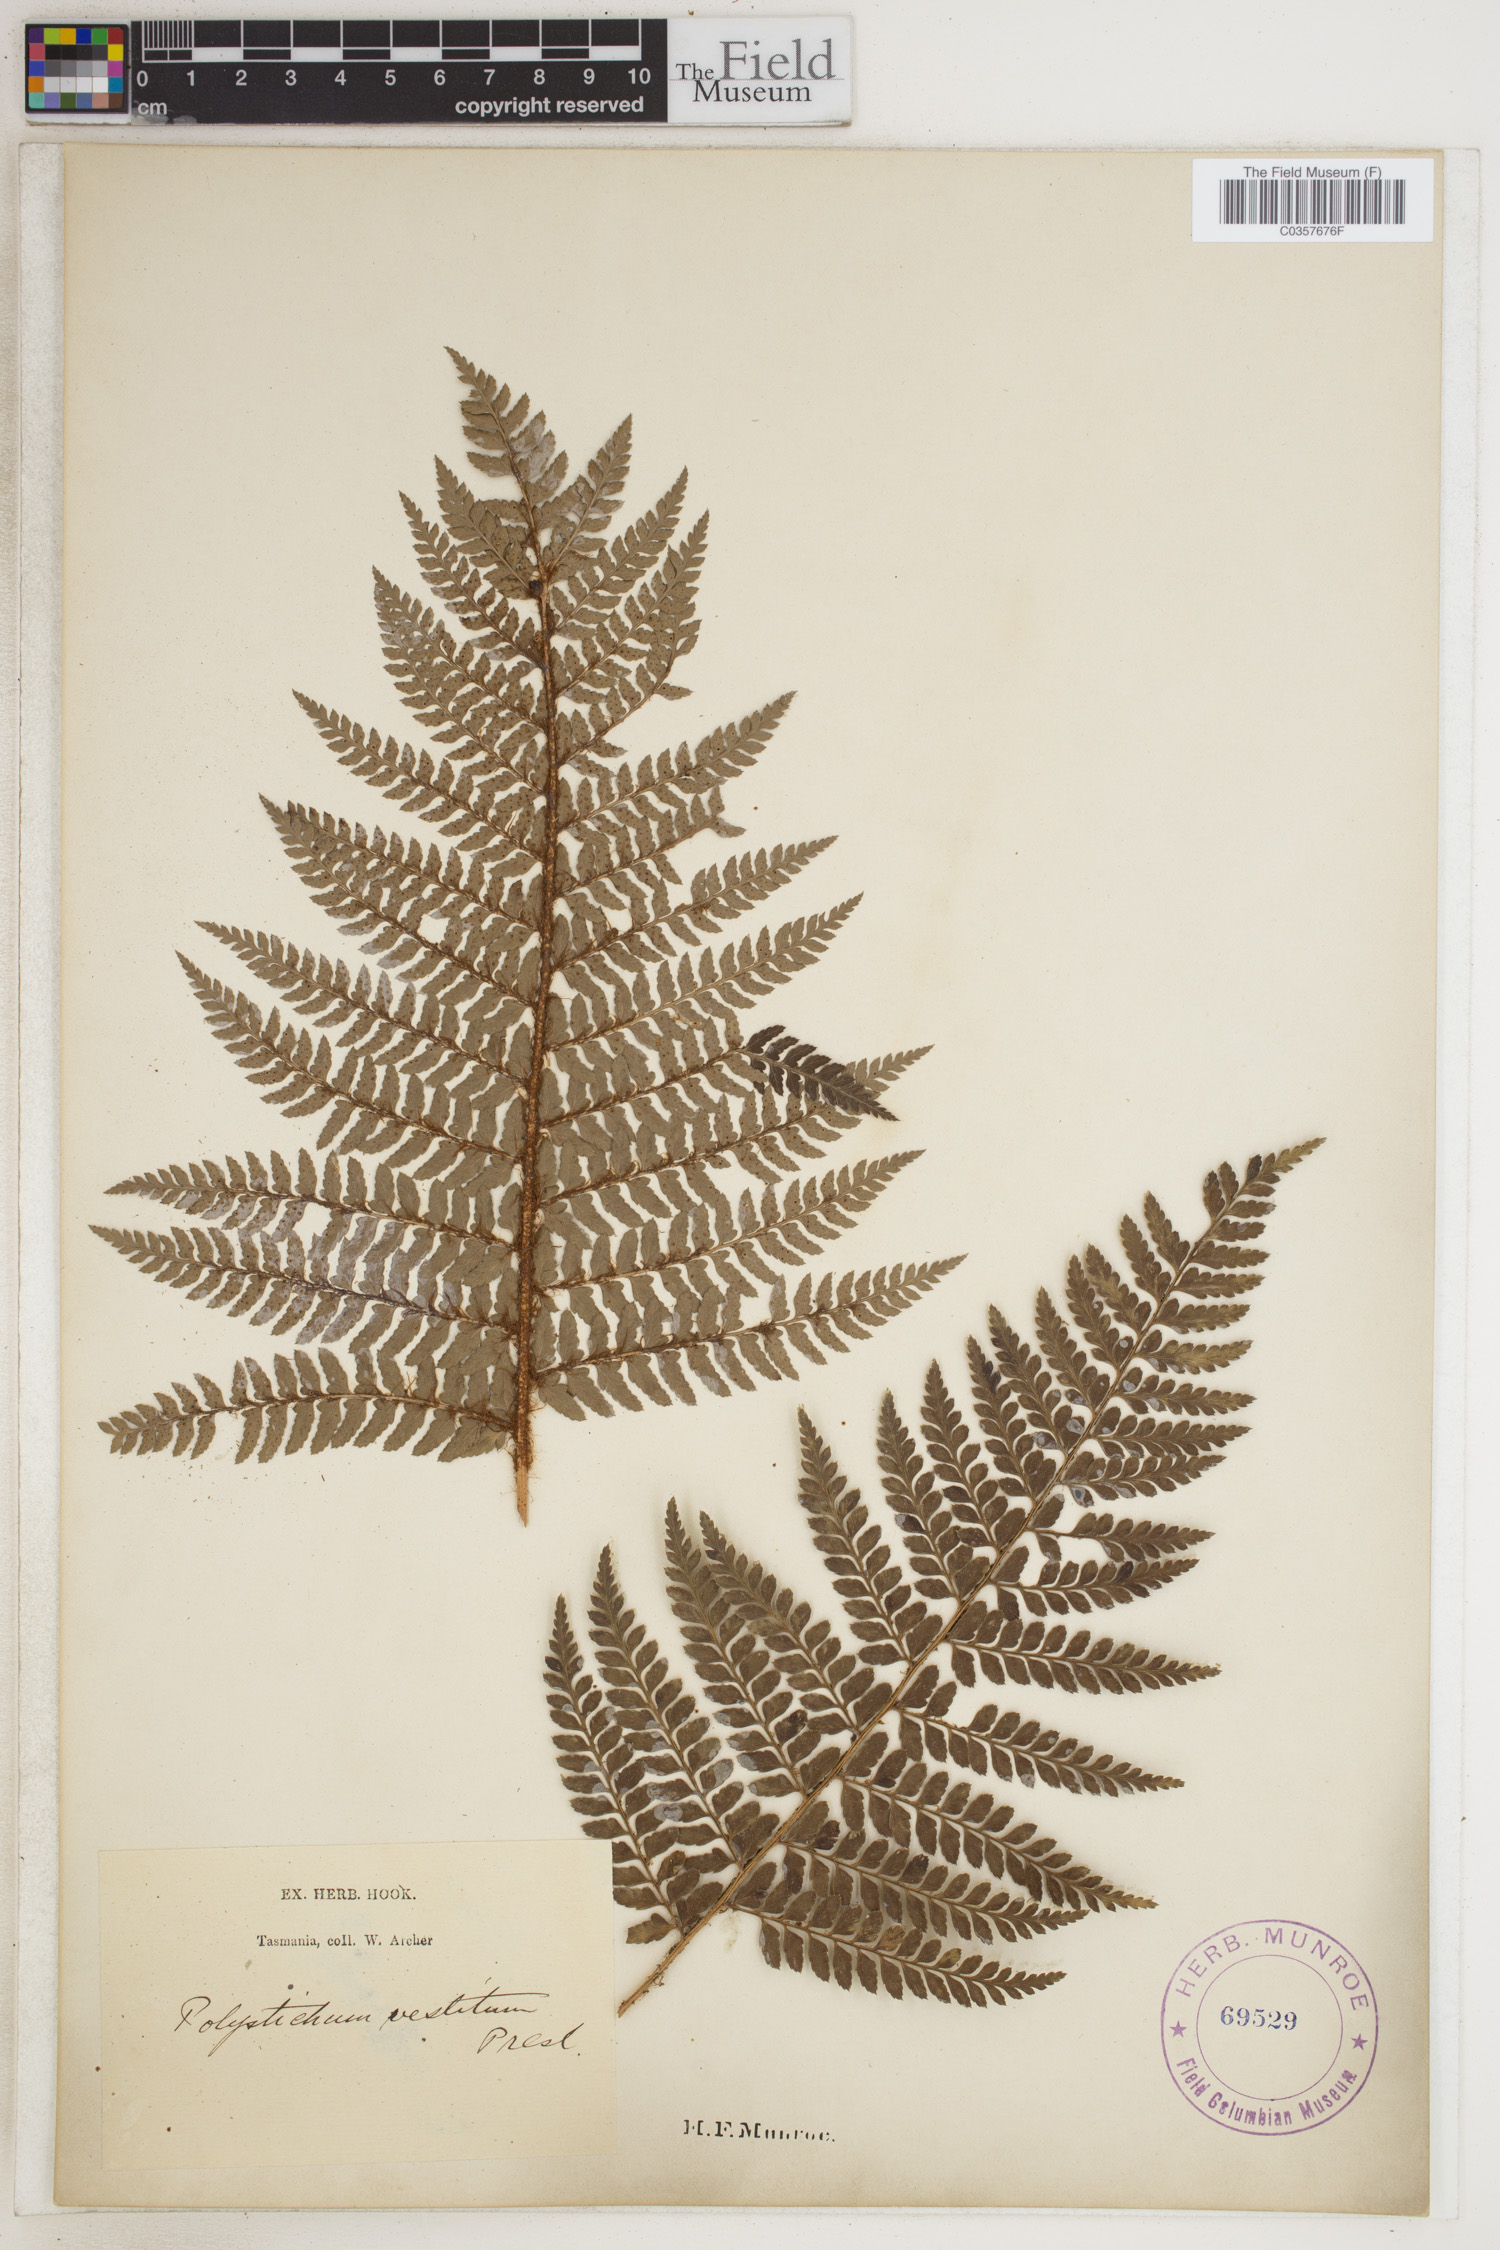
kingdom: Plantae
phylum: Tracheophyta
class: Polypodiopsida
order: Polypodiales
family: Dryopteridaceae
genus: Polystichum
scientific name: Polystichum vestitum
